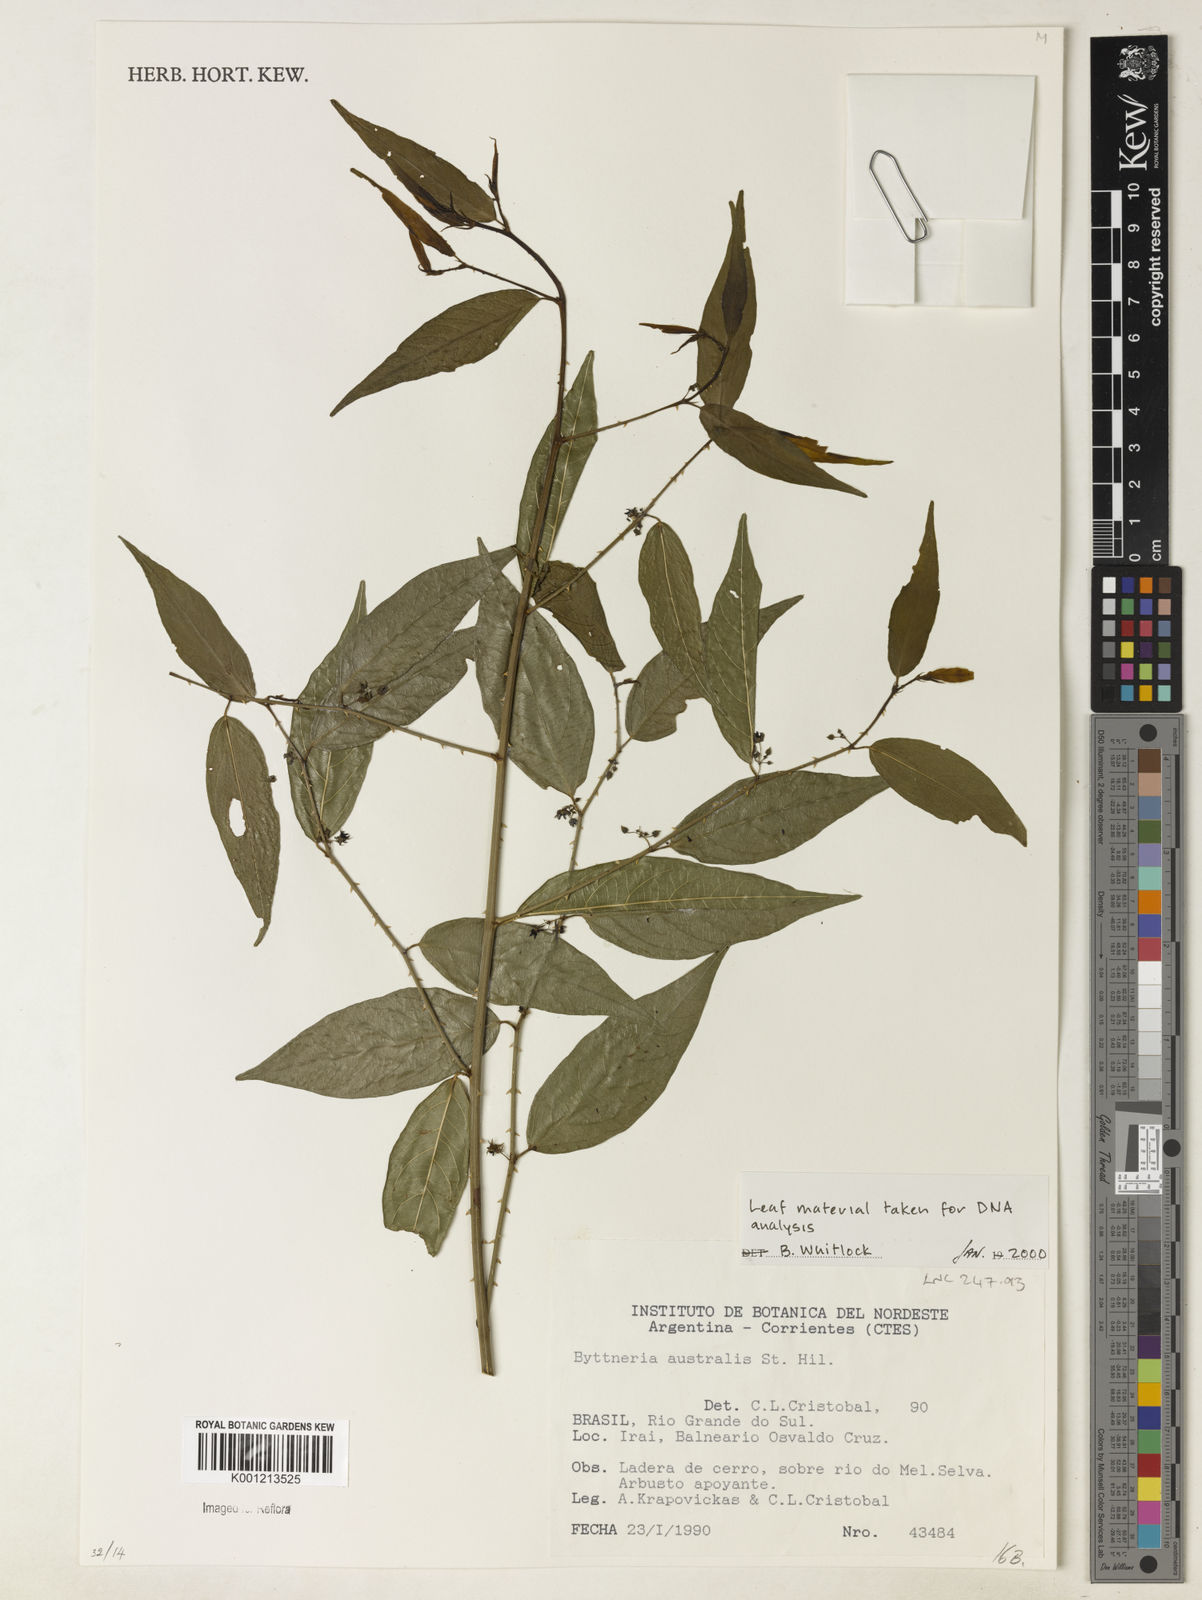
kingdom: Plantae
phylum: Tracheophyta
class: Magnoliopsida
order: Malvales
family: Malvaceae
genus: Byttneria
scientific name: Byttneria australis
